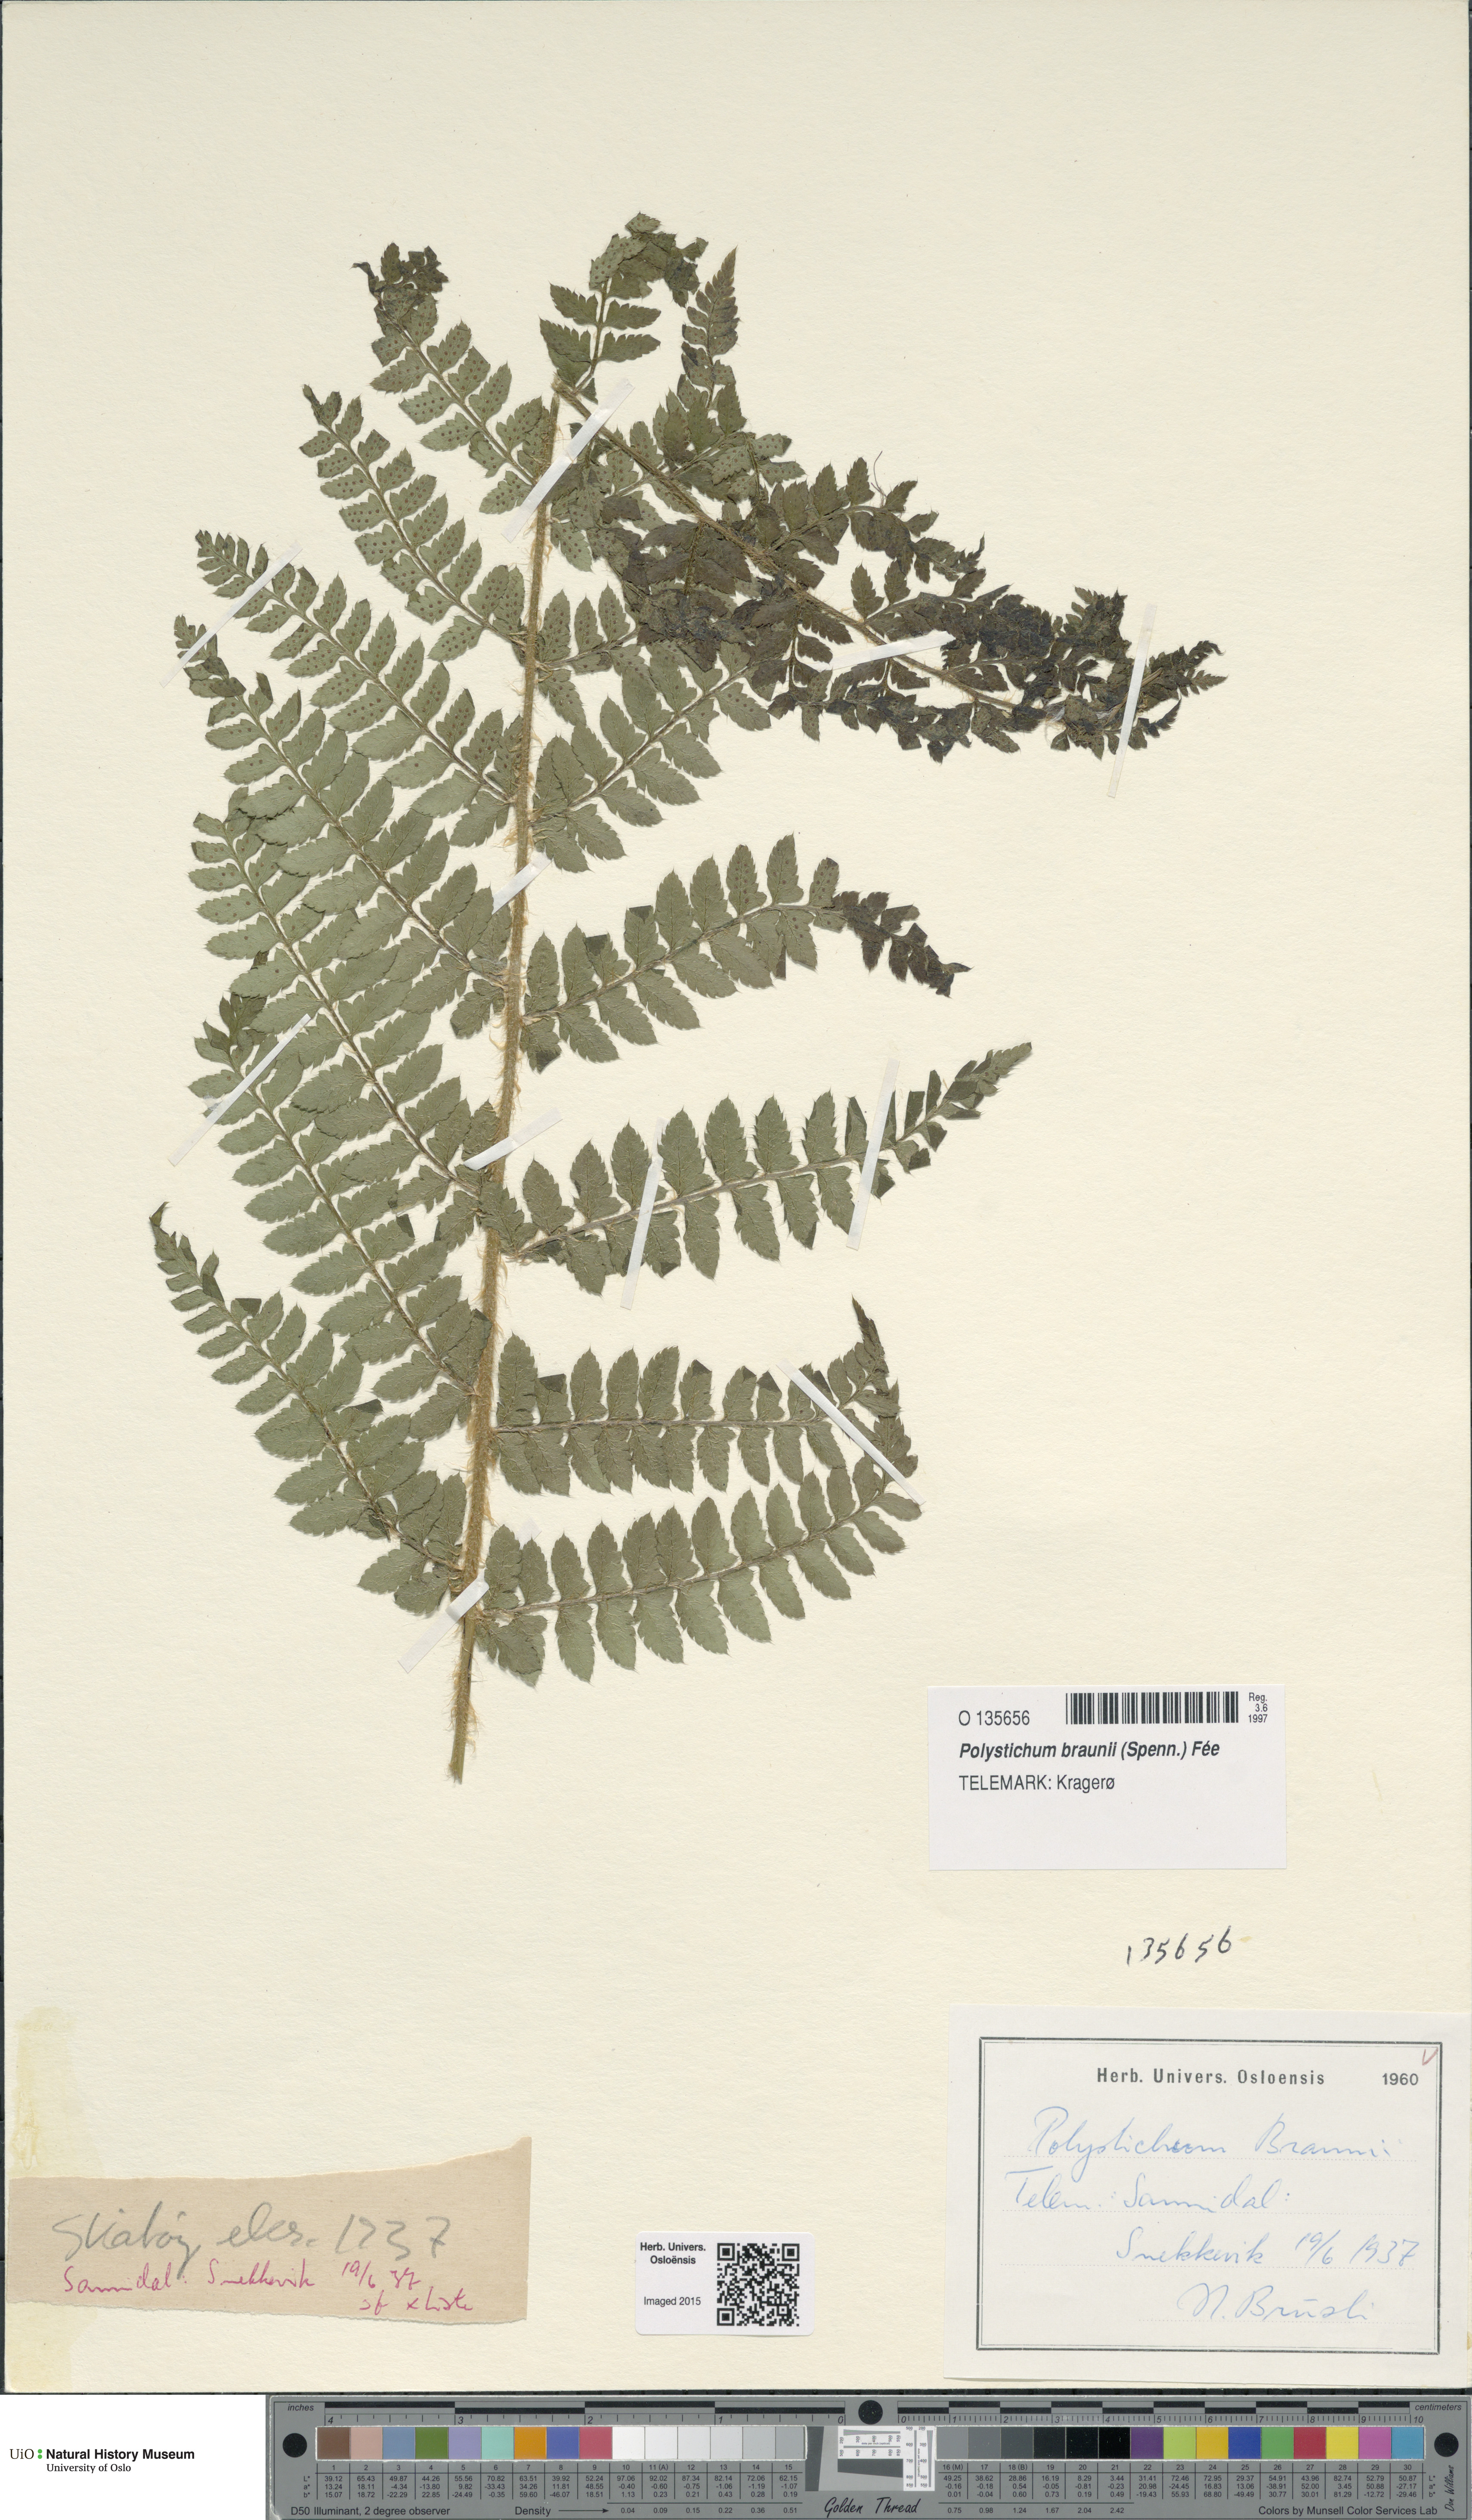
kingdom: Plantae
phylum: Tracheophyta
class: Polypodiopsida
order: Polypodiales
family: Dryopteridaceae
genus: Polystichum
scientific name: Polystichum braunii
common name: Braun's holly fern
